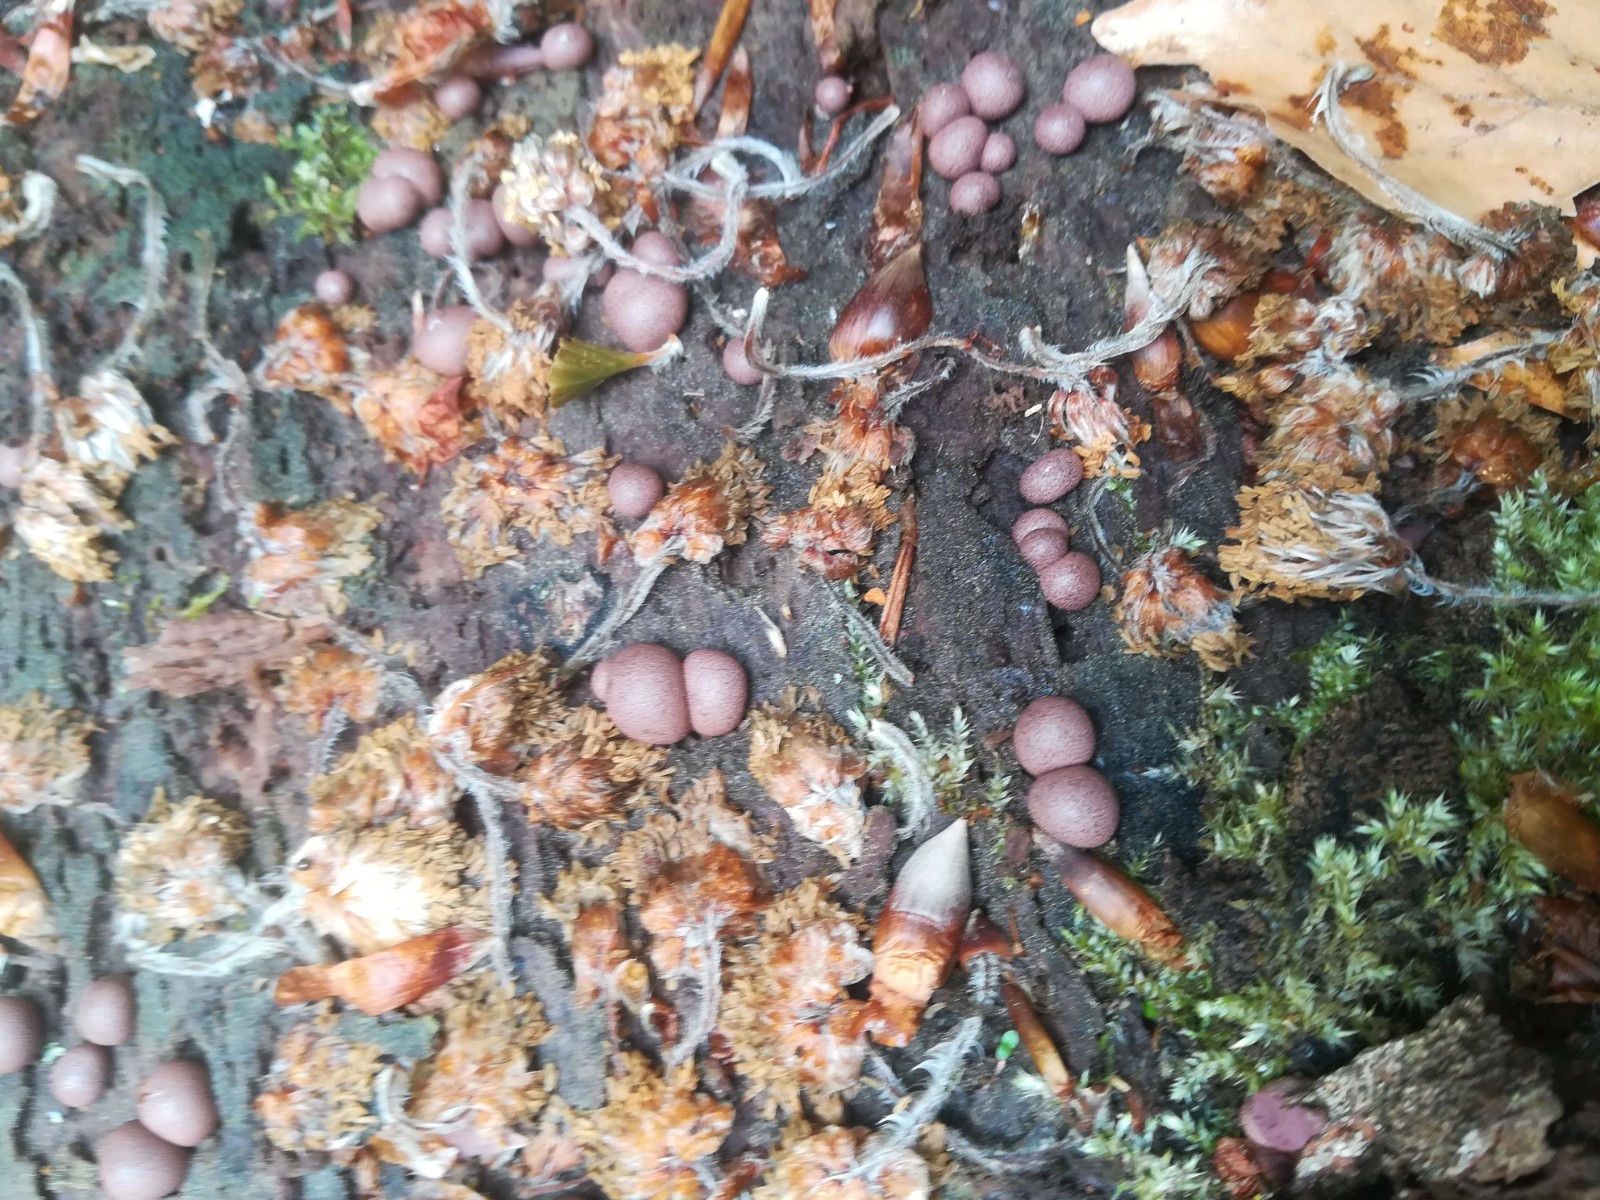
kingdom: Protozoa
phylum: Mycetozoa
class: Myxomycetes
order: Cribrariales
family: Tubiferaceae
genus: Lycogala
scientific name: Lycogala epidendrum
